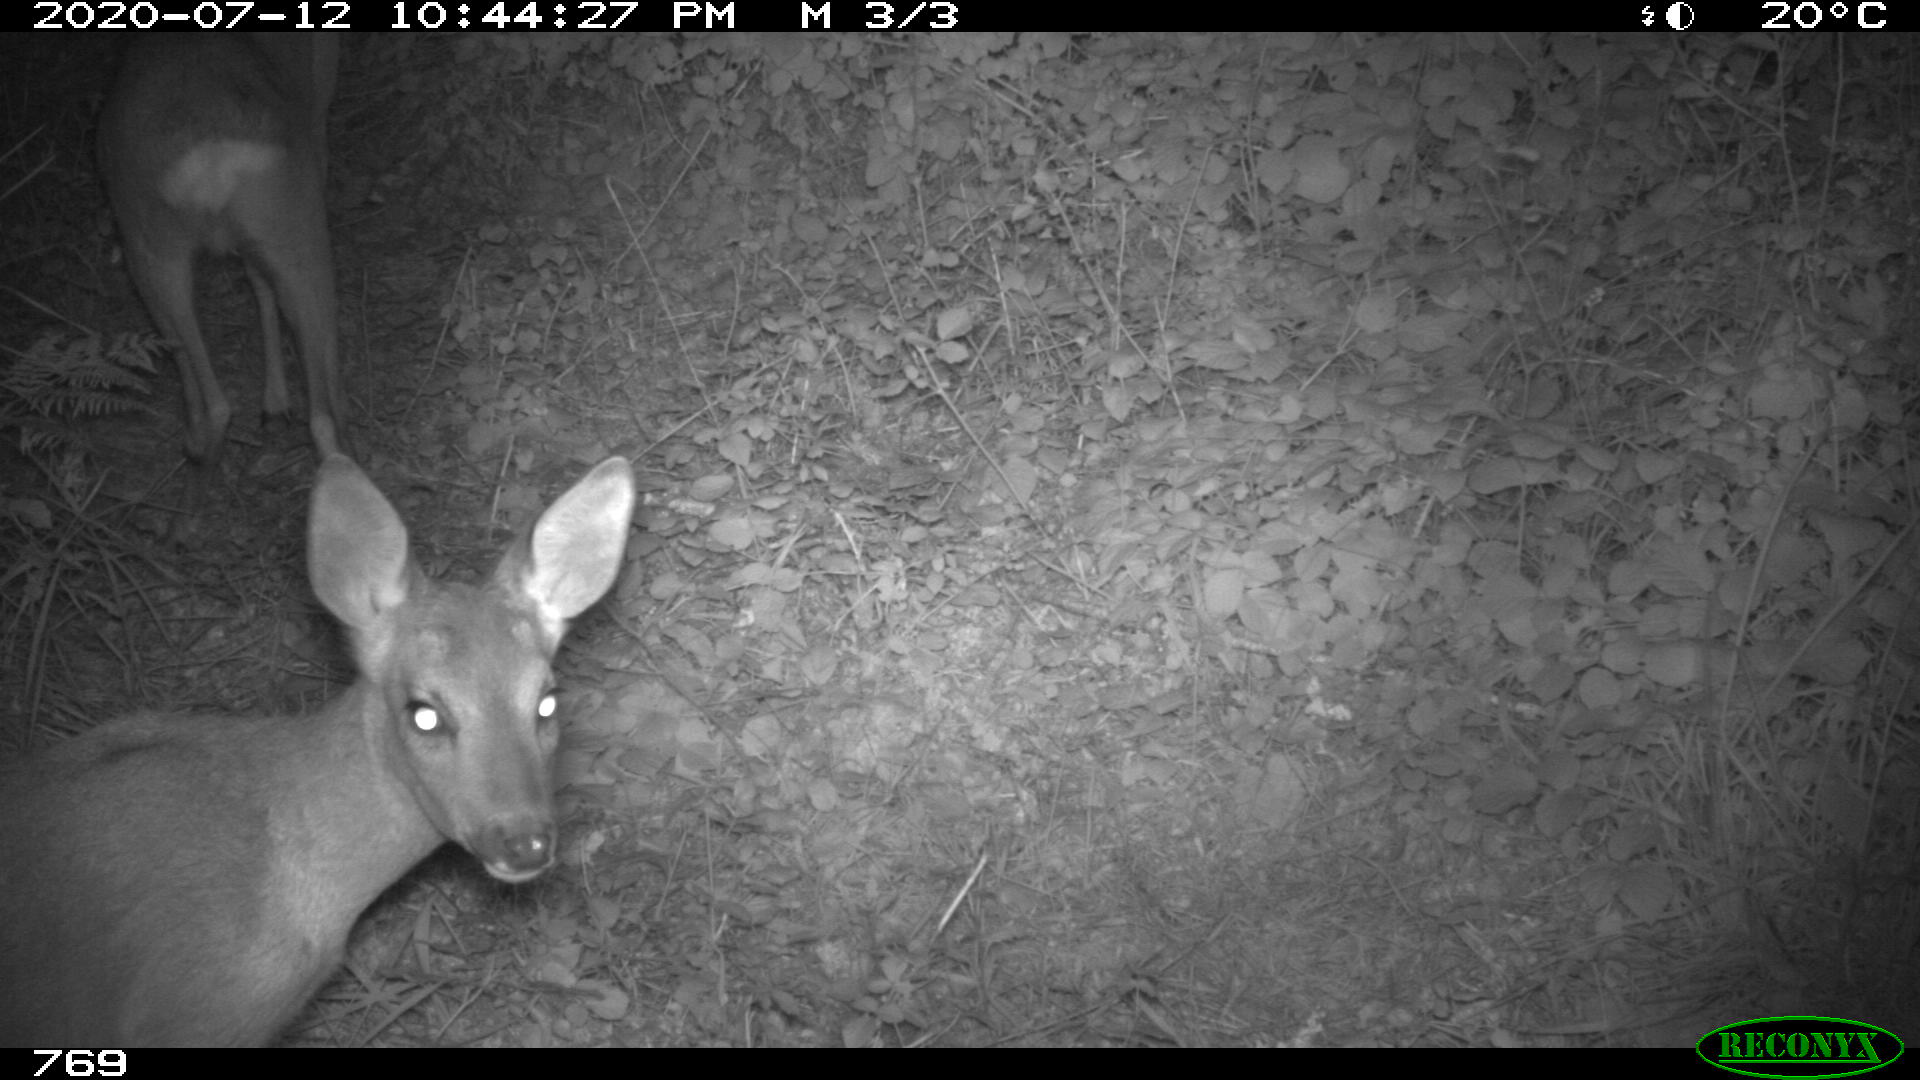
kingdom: Animalia
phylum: Chordata
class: Mammalia
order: Artiodactyla
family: Cervidae
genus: Capreolus
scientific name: Capreolus capreolus
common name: Western roe deer
